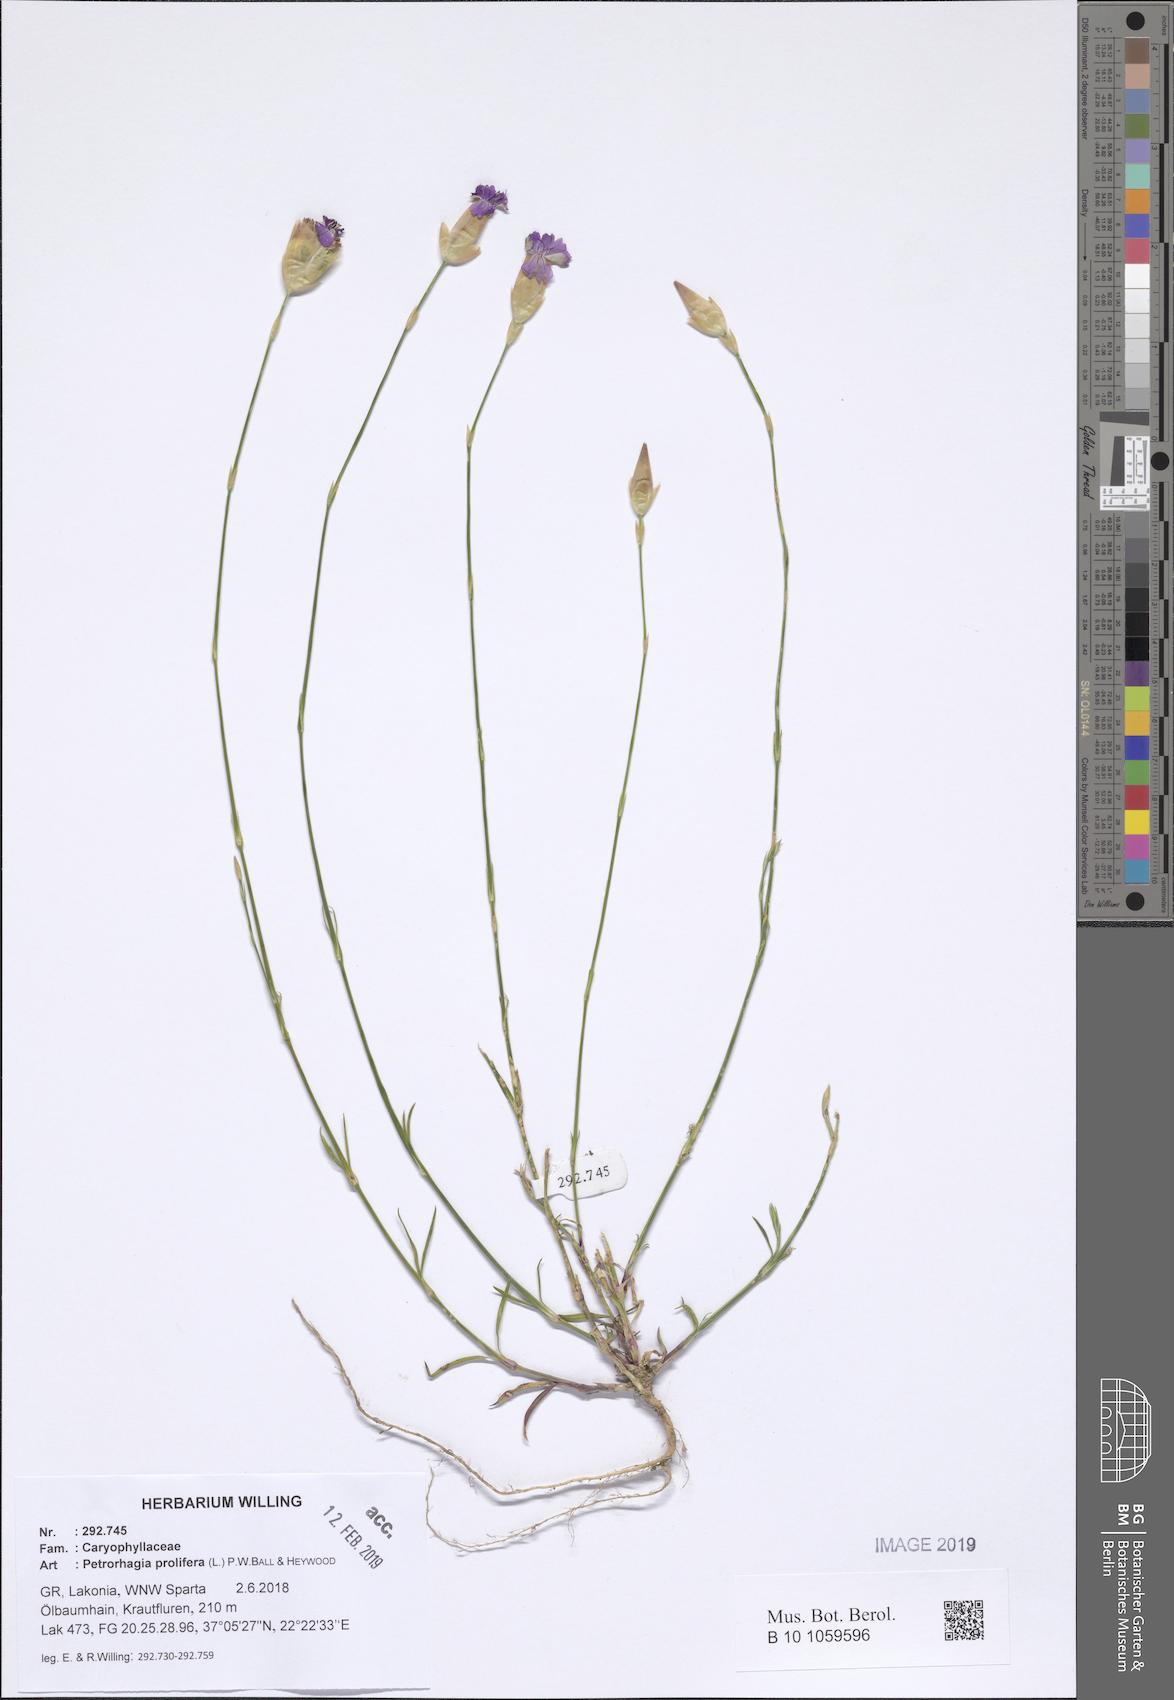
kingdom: Plantae
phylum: Tracheophyta
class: Magnoliopsida
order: Caryophyllales
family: Caryophyllaceae
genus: Petrorhagia
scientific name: Petrorhagia prolifera
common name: Proliferous pink
